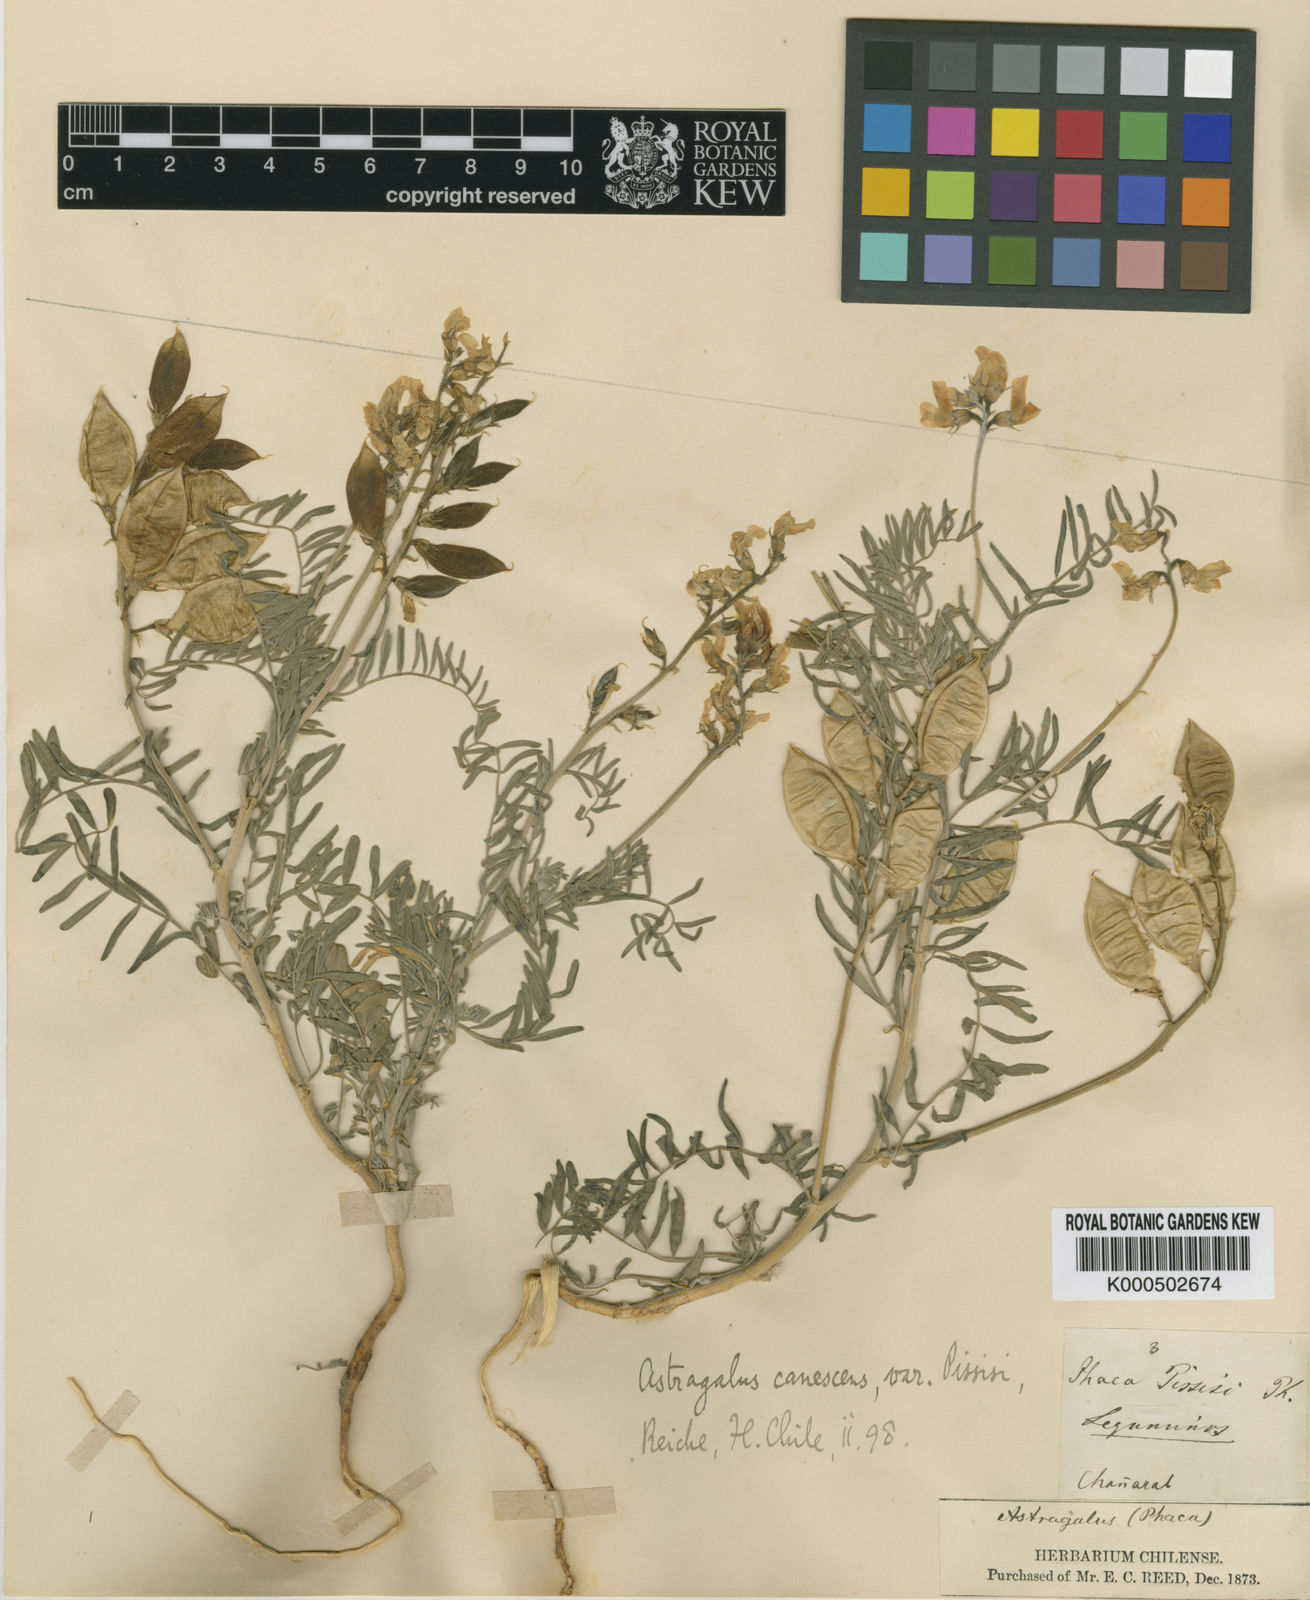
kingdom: Plantae
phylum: Tracheophyta
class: Magnoliopsida
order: Fabales
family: Fabaceae
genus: Astragalus
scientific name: Astragalus pissisi
